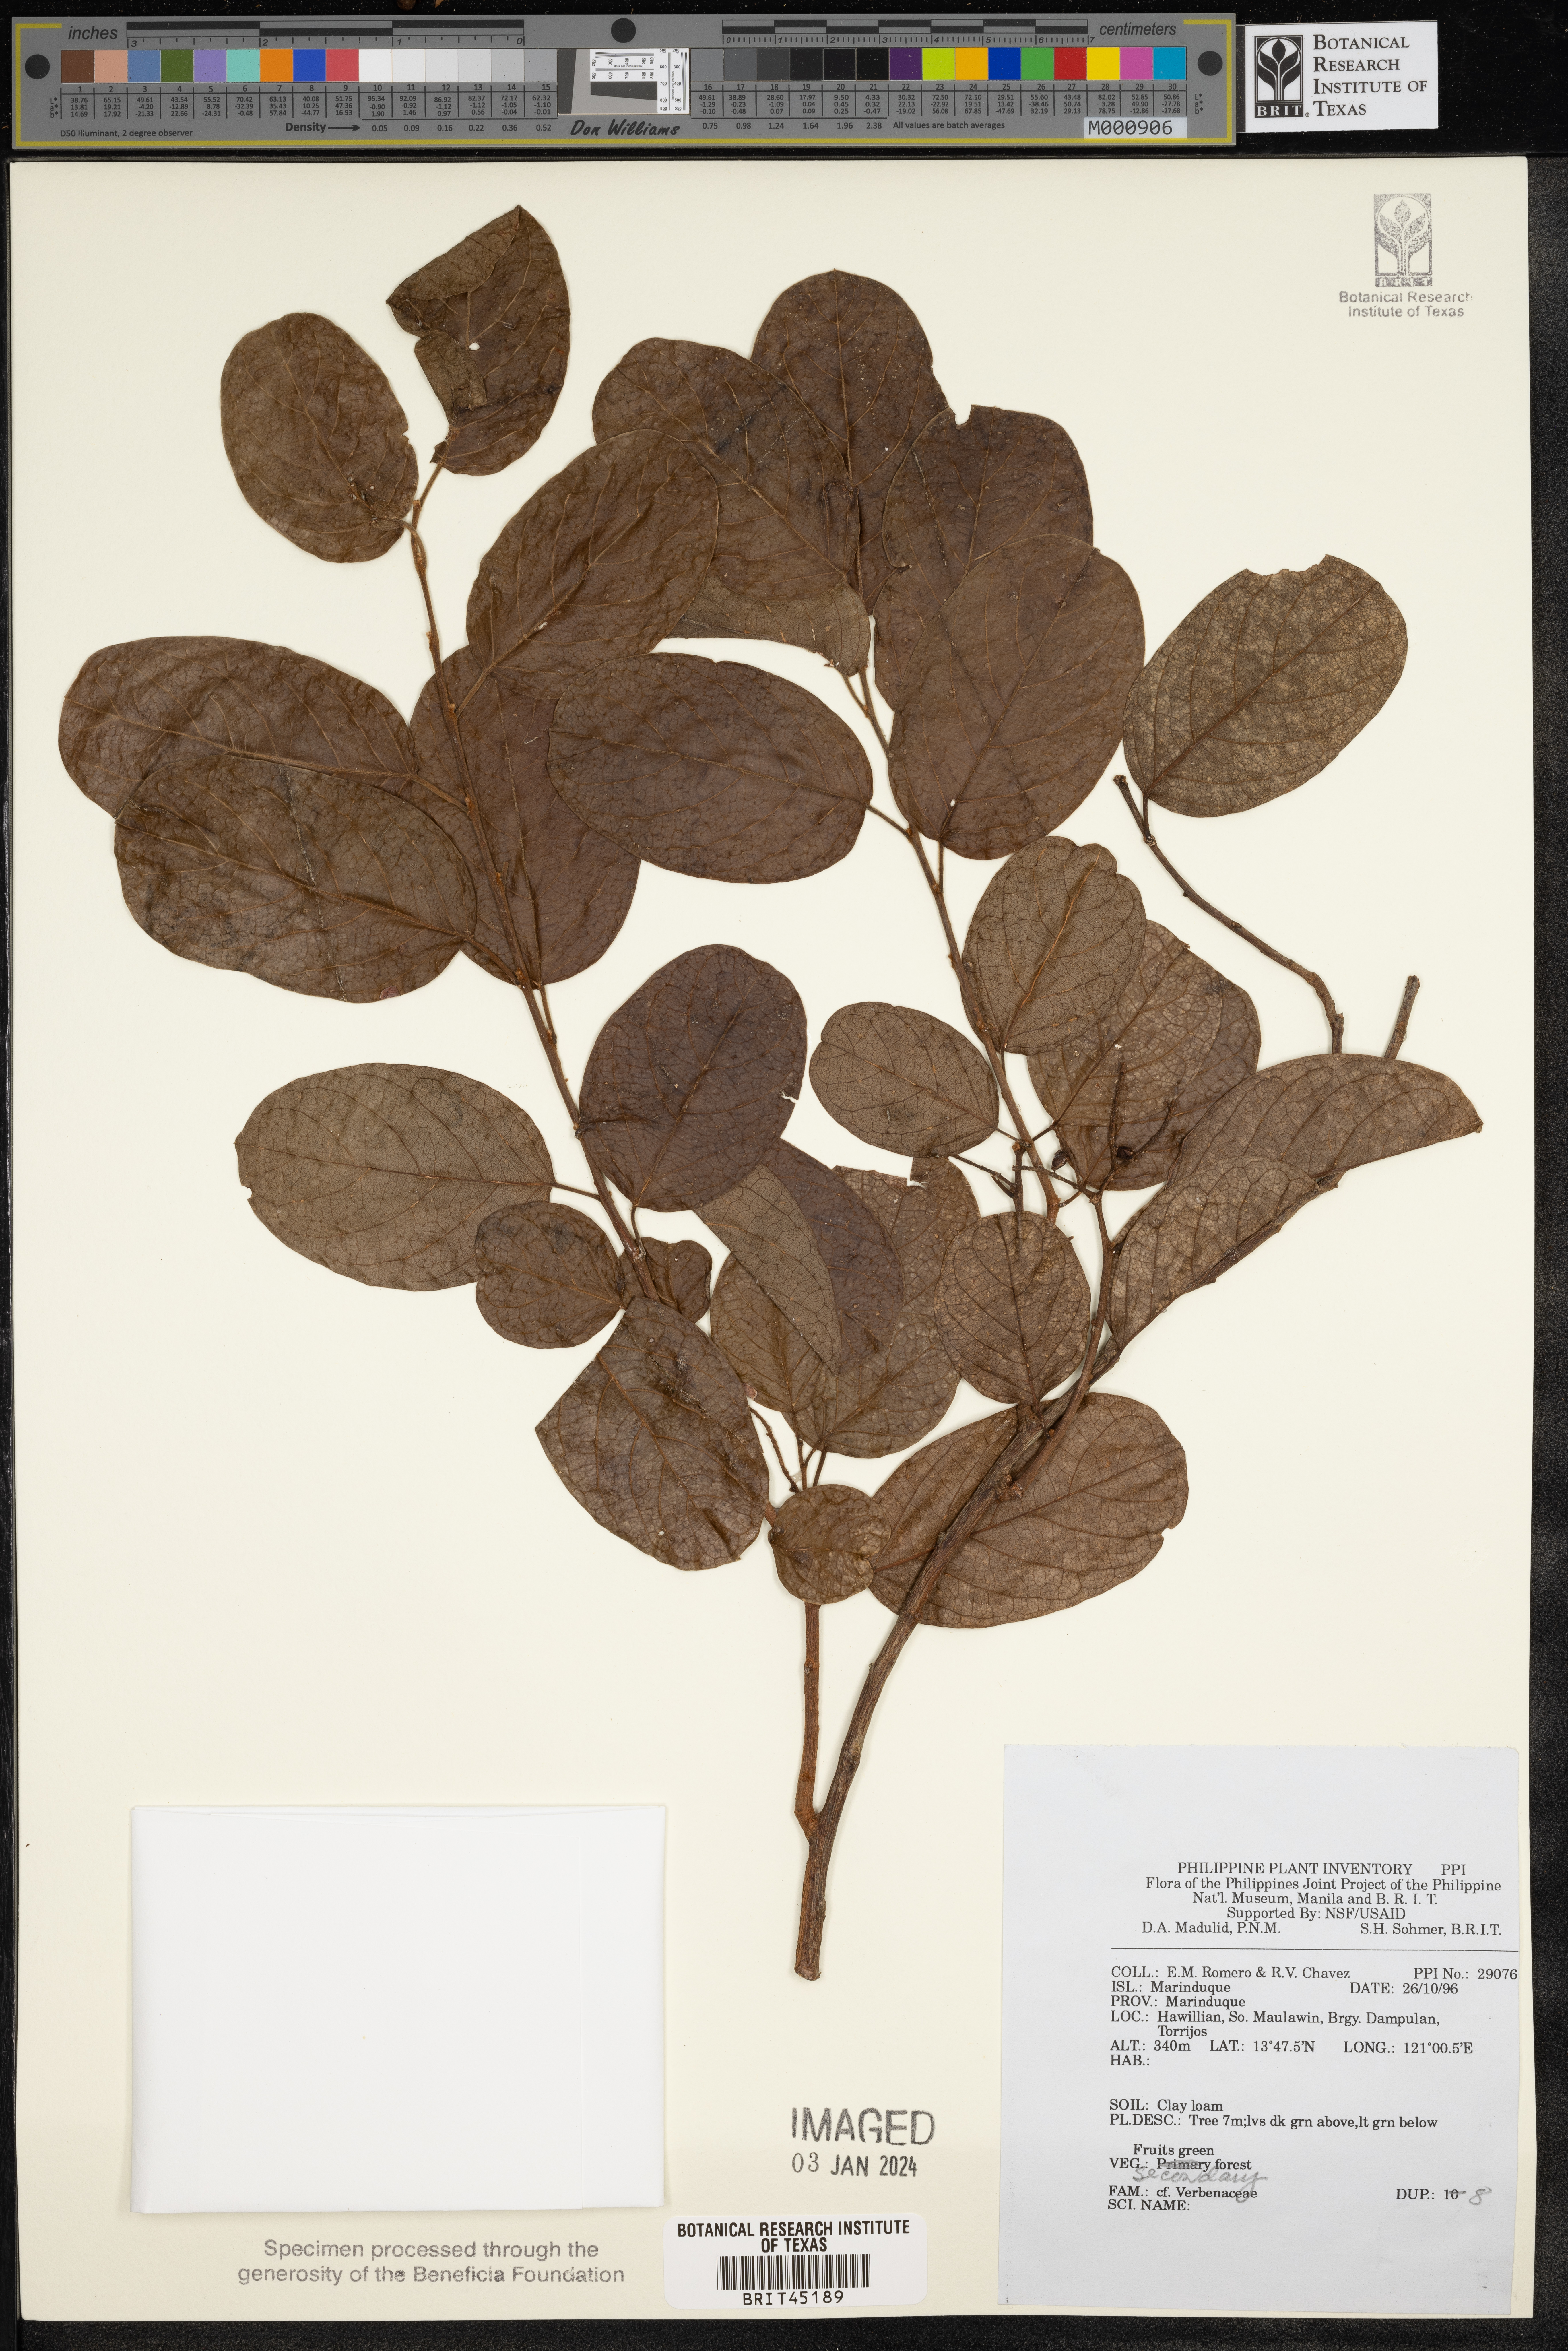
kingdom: Plantae
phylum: Tracheophyta
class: Magnoliopsida
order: Lamiales
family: Verbenaceae
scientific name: Verbenaceae
